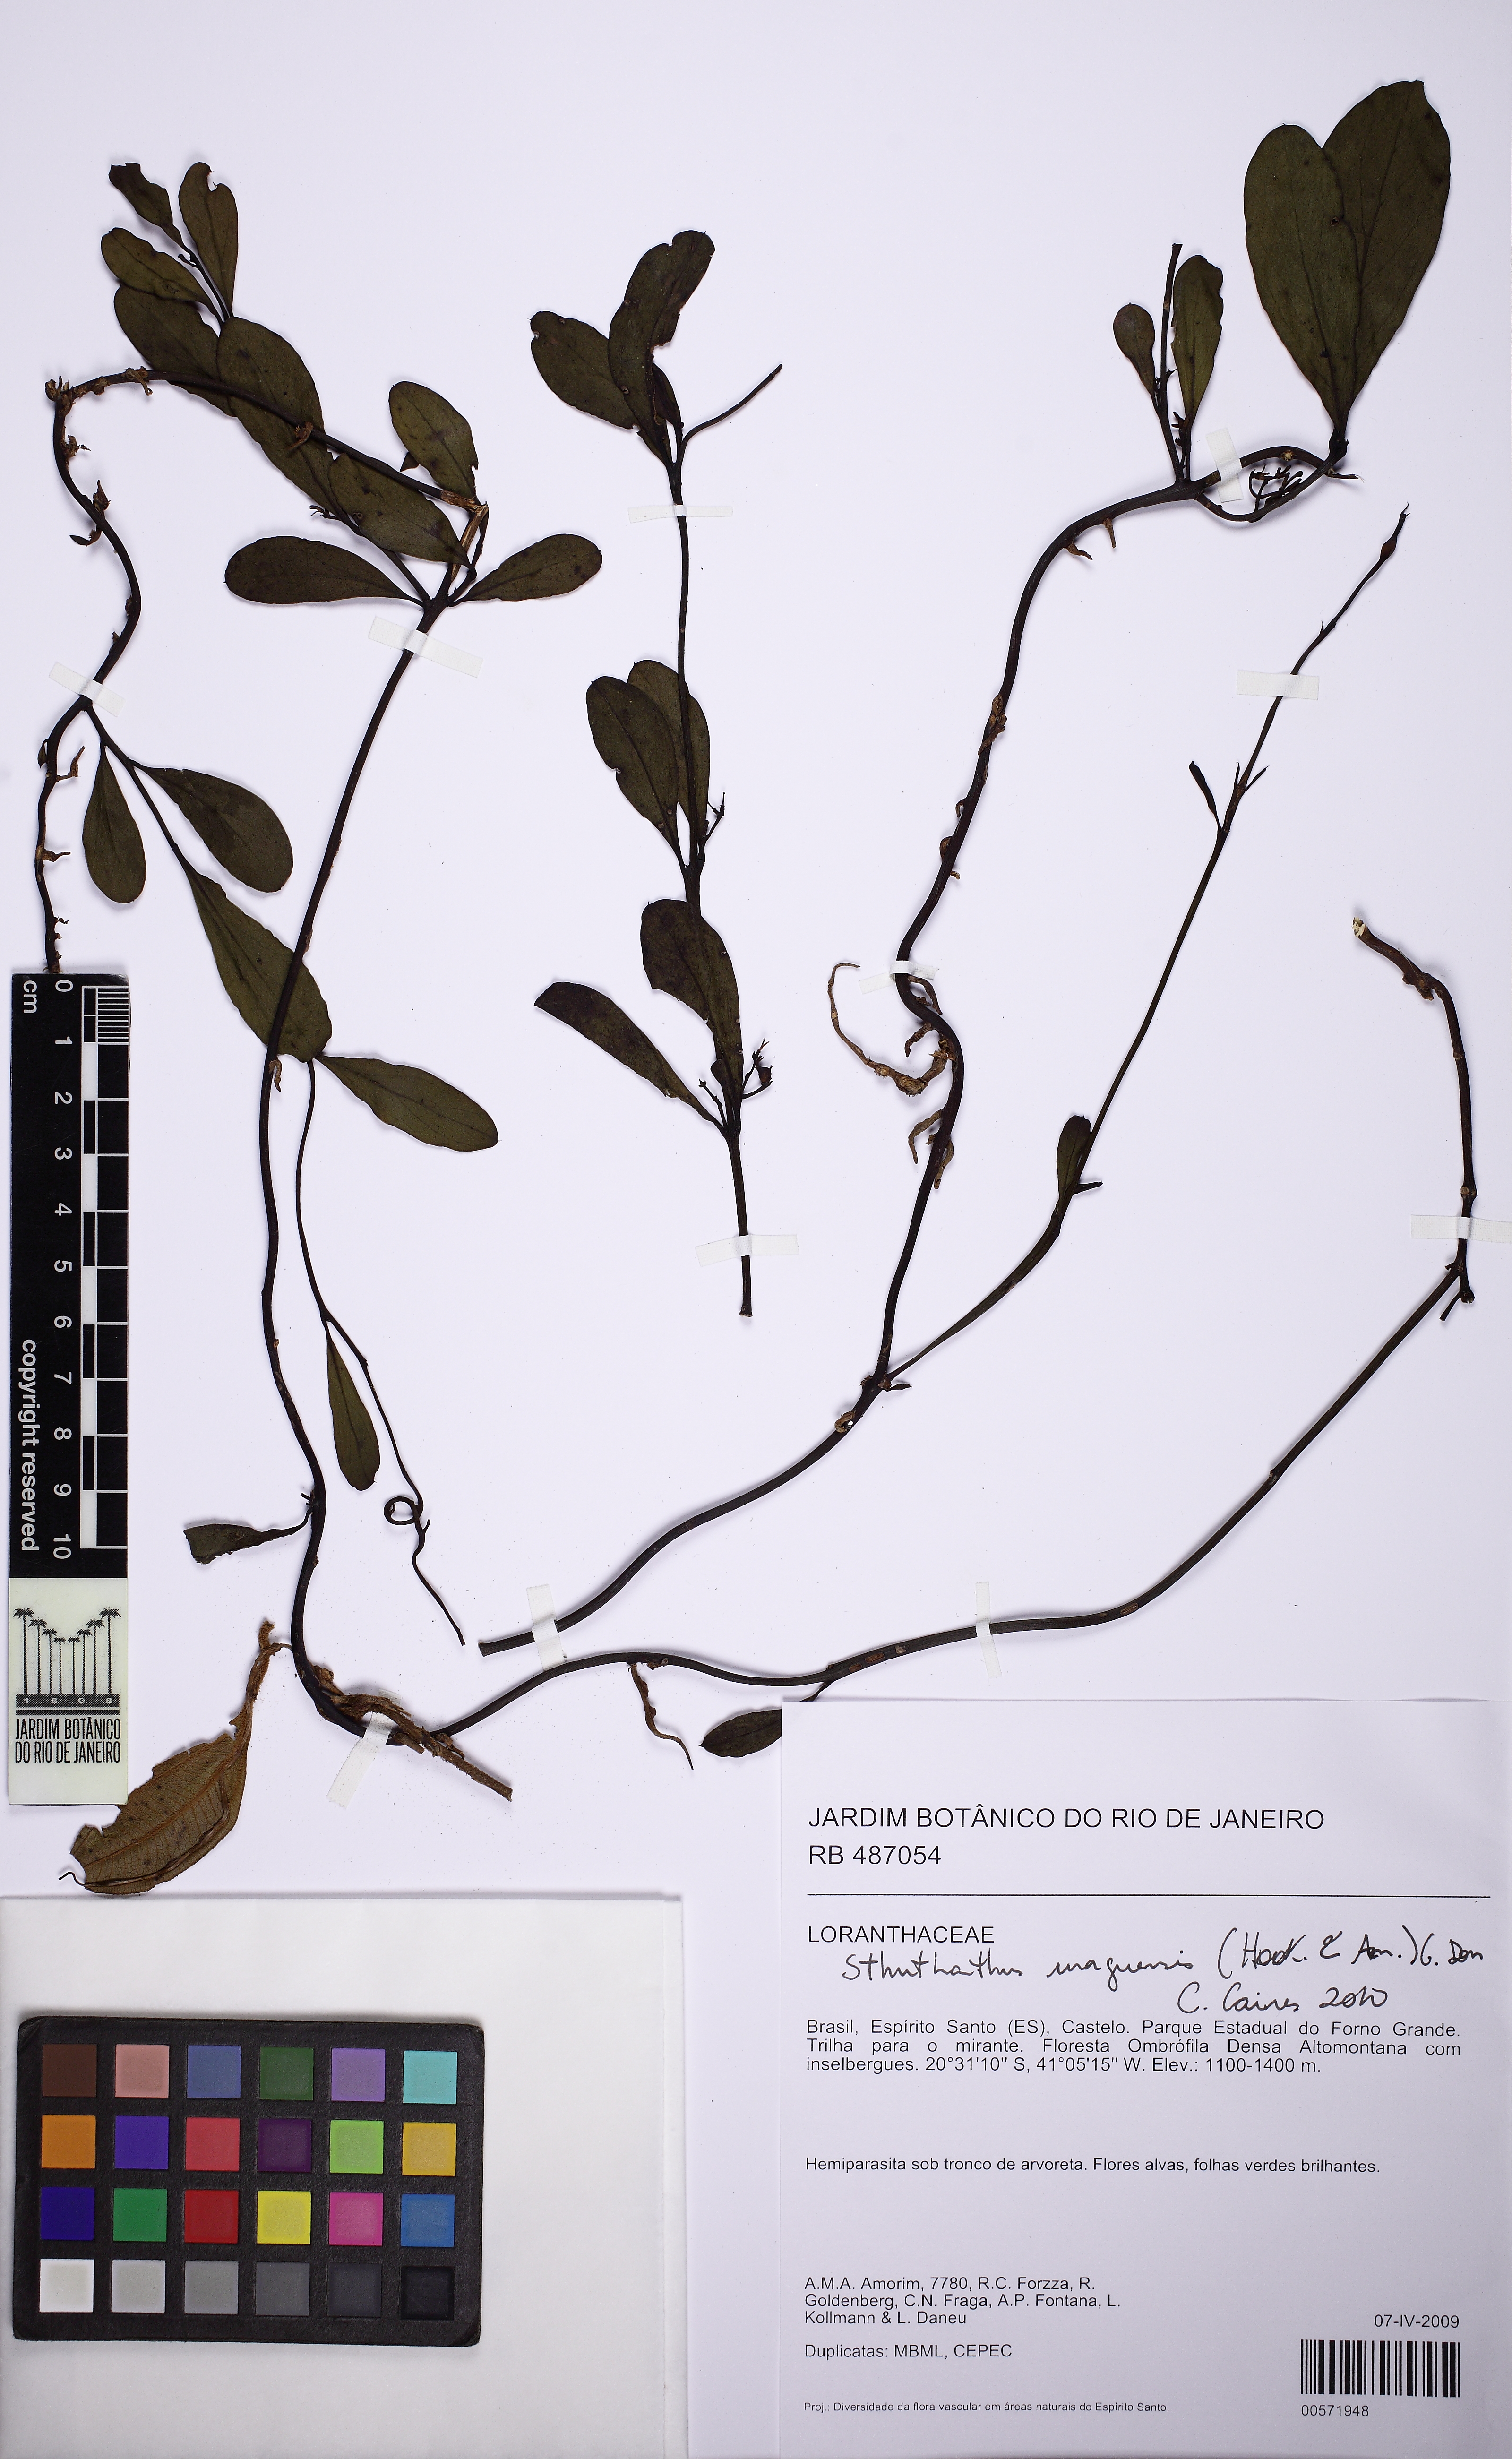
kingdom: Plantae
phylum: Tracheophyta
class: Magnoliopsida
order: Santalales
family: Loranthaceae
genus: Struthanthus
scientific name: Struthanthus uraguensis
